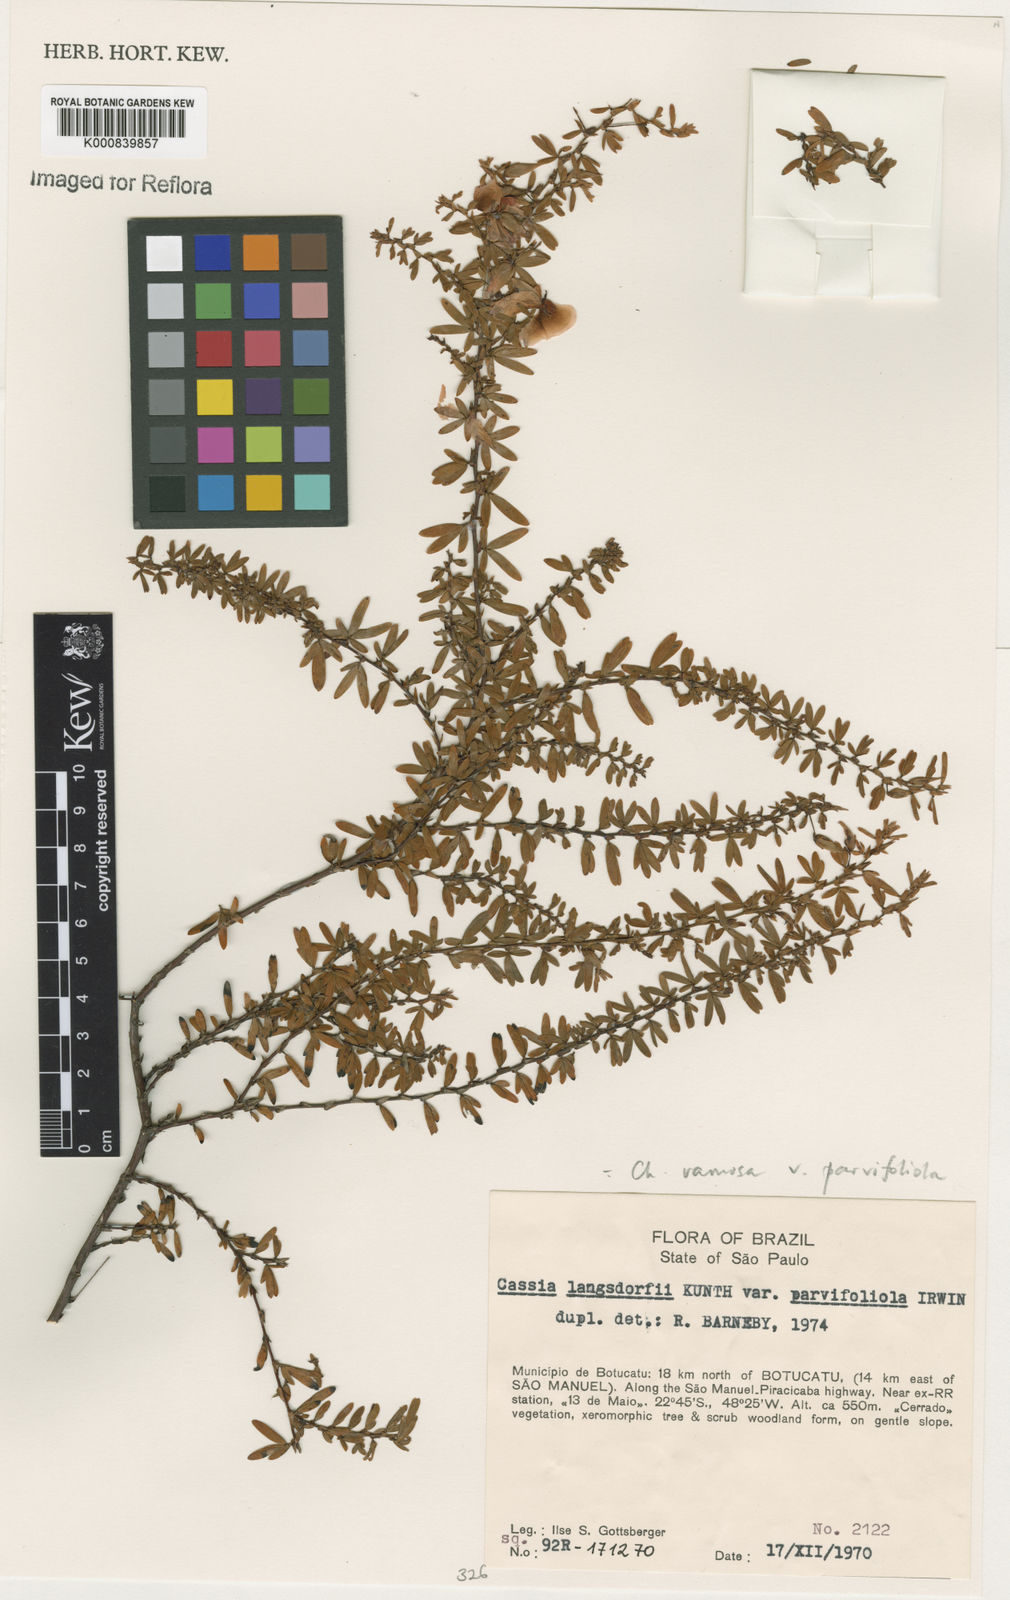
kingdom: Plantae
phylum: Tracheophyta
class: Magnoliopsida
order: Fabales
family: Fabaceae
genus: Chamaecrista
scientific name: Chamaecrista ramosa
